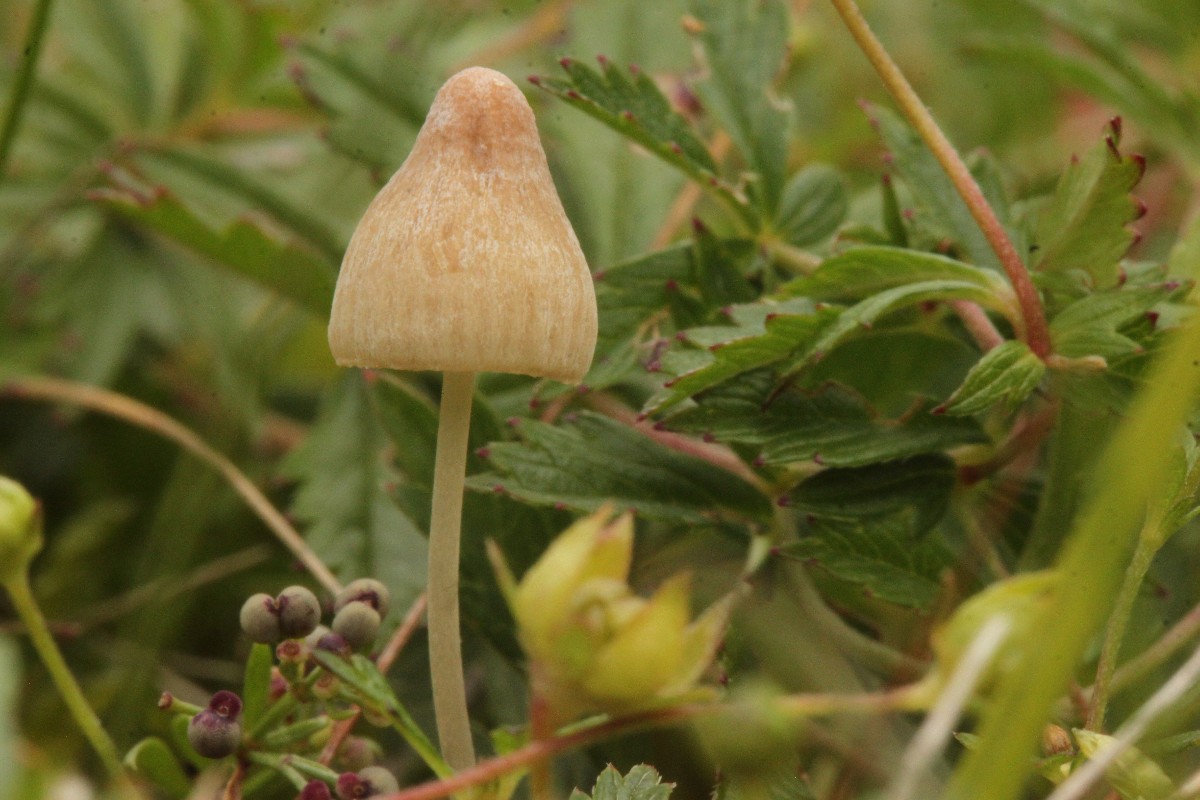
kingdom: Fungi
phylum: Basidiomycota
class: Agaricomycetes
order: Agaricales
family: Mycenaceae
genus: Mycena
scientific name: Mycena
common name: huesvamp
